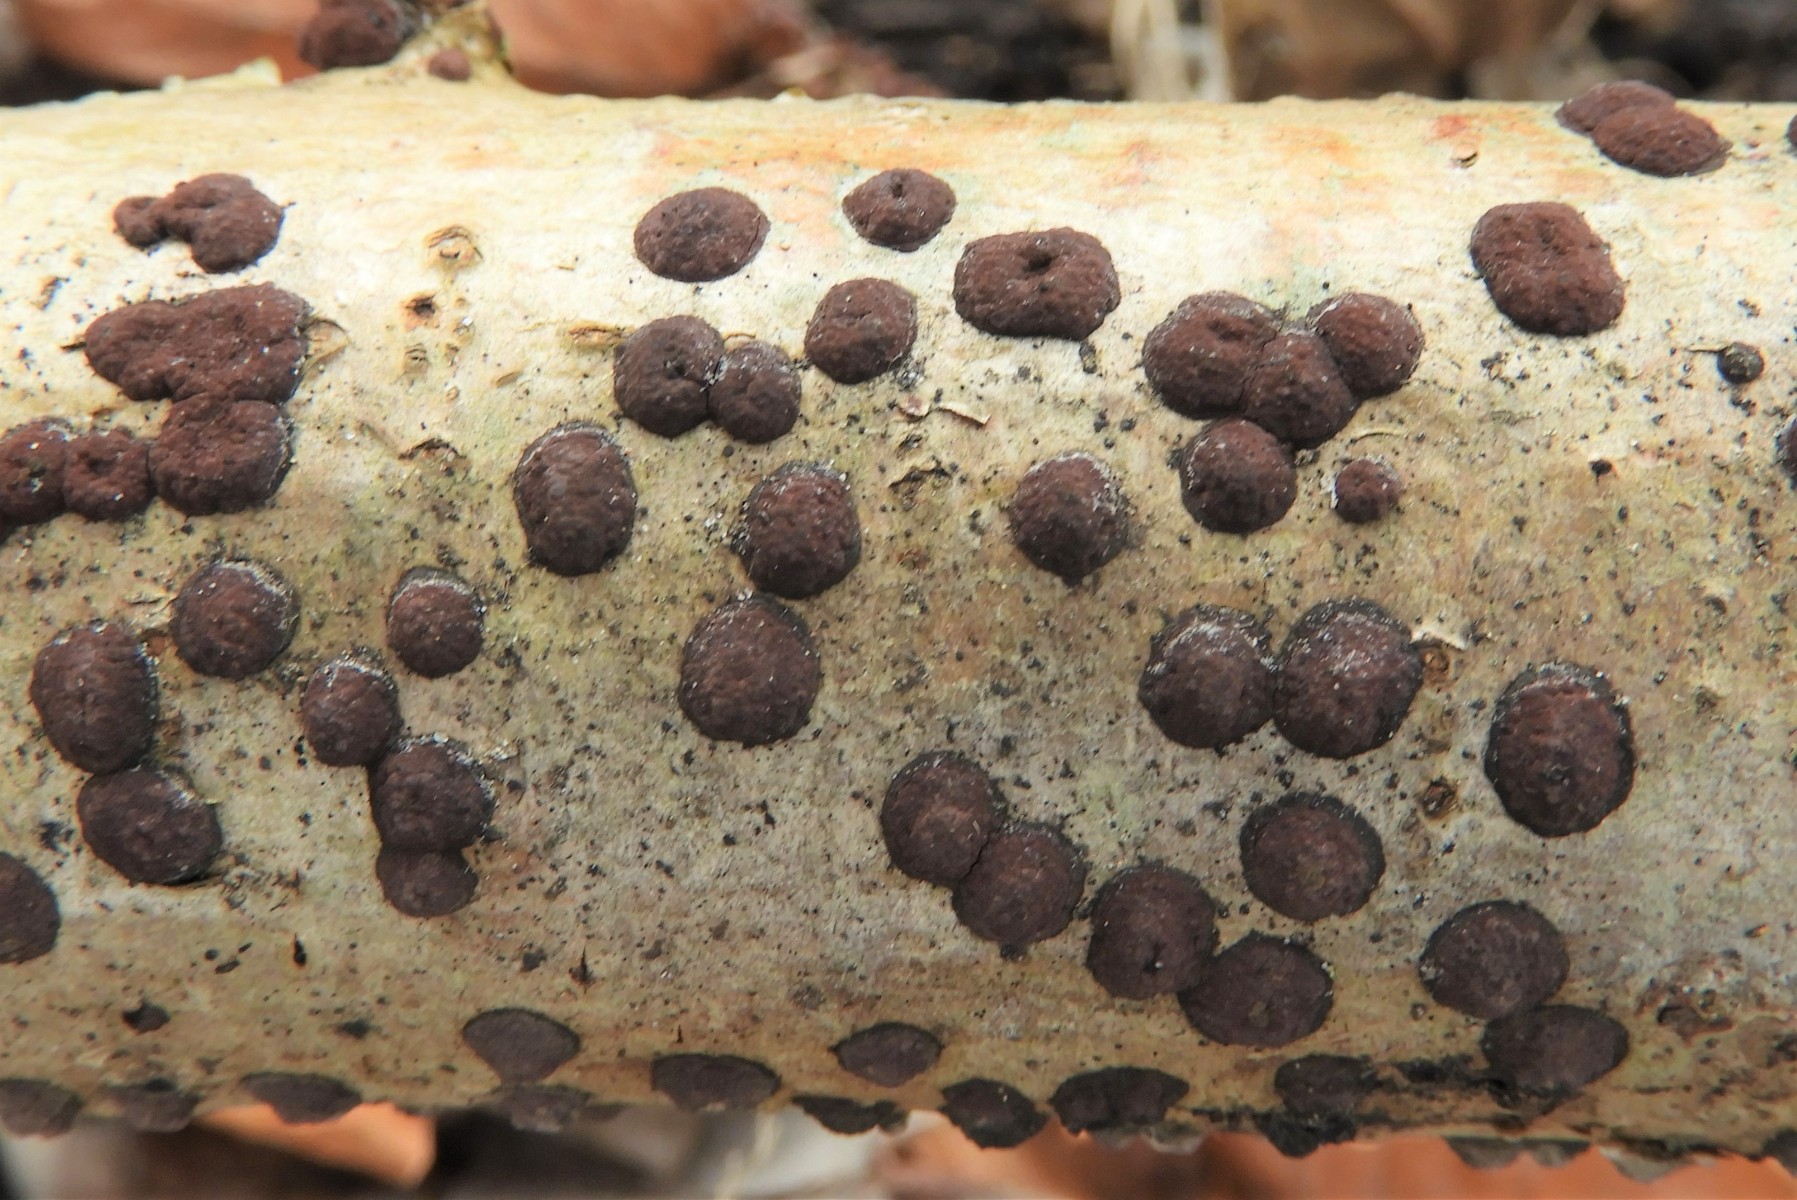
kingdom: Fungi
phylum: Ascomycota
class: Sordariomycetes
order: Xylariales
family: Hypoxylaceae
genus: Hypoxylon
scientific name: Hypoxylon fuscum
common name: kegleformet kulbær
